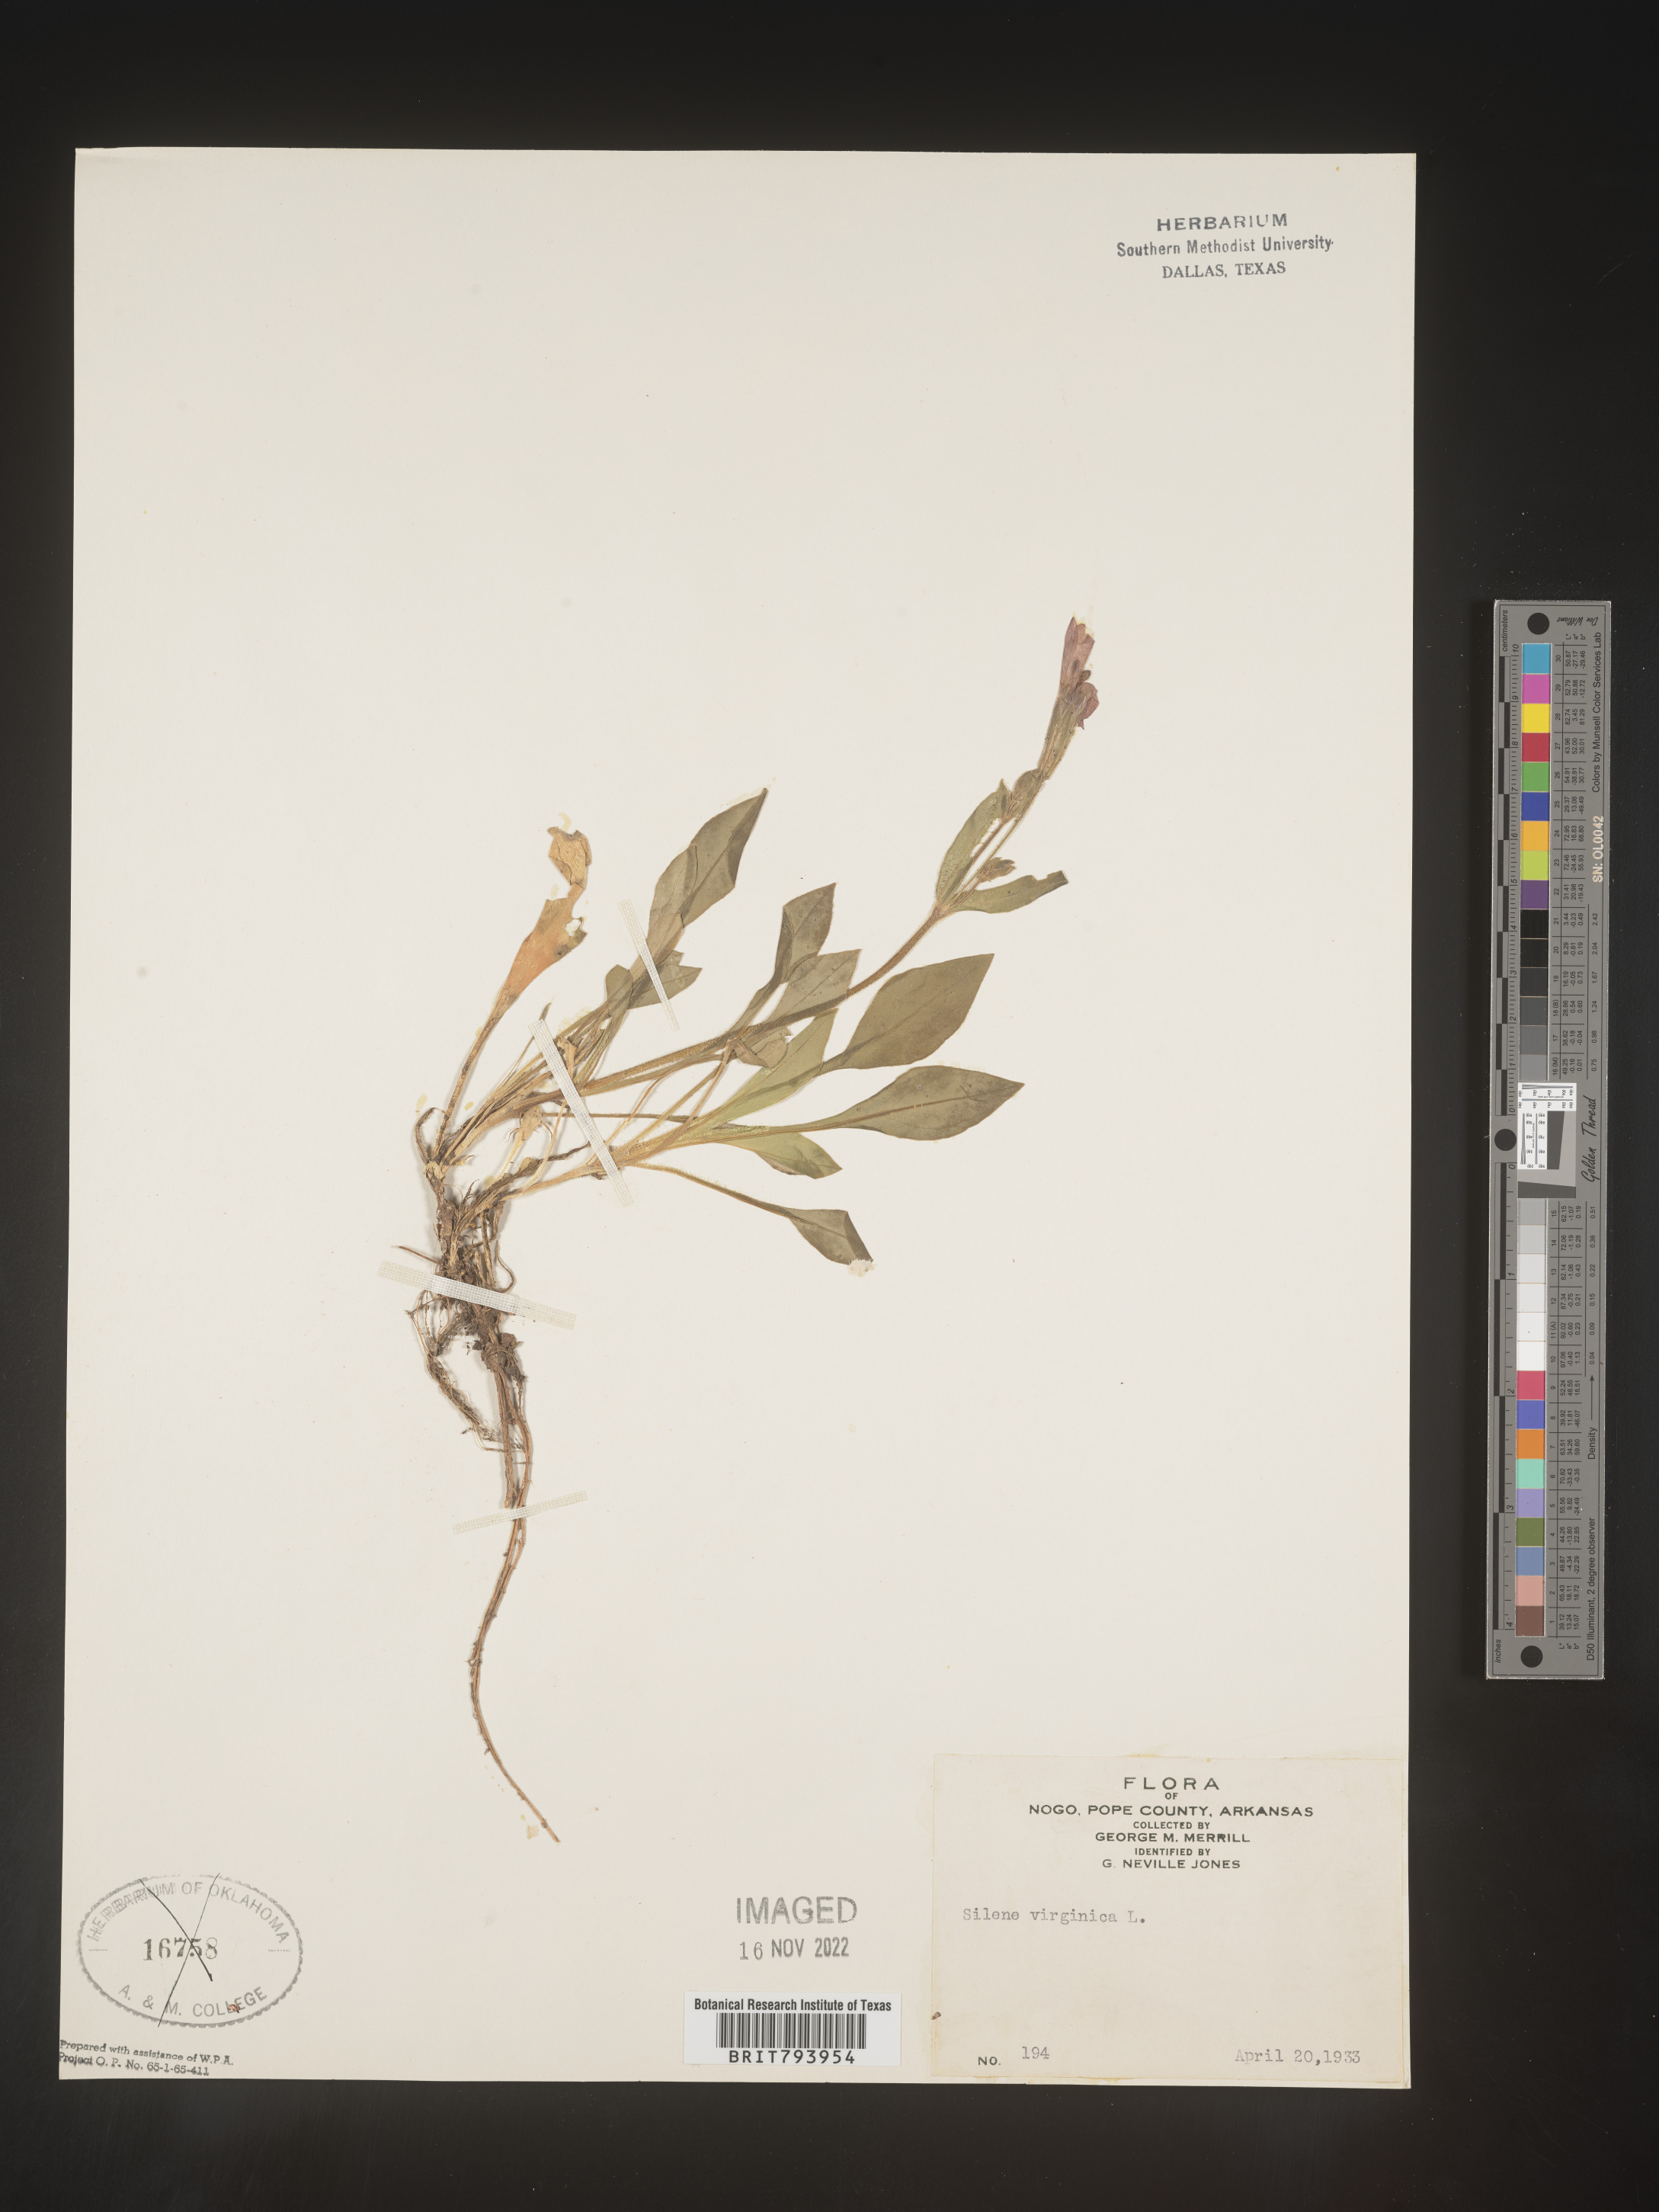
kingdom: Plantae
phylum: Tracheophyta
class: Magnoliopsida
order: Caryophyllales
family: Caryophyllaceae
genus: Silene
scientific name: Silene virginica
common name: Fire-pink
